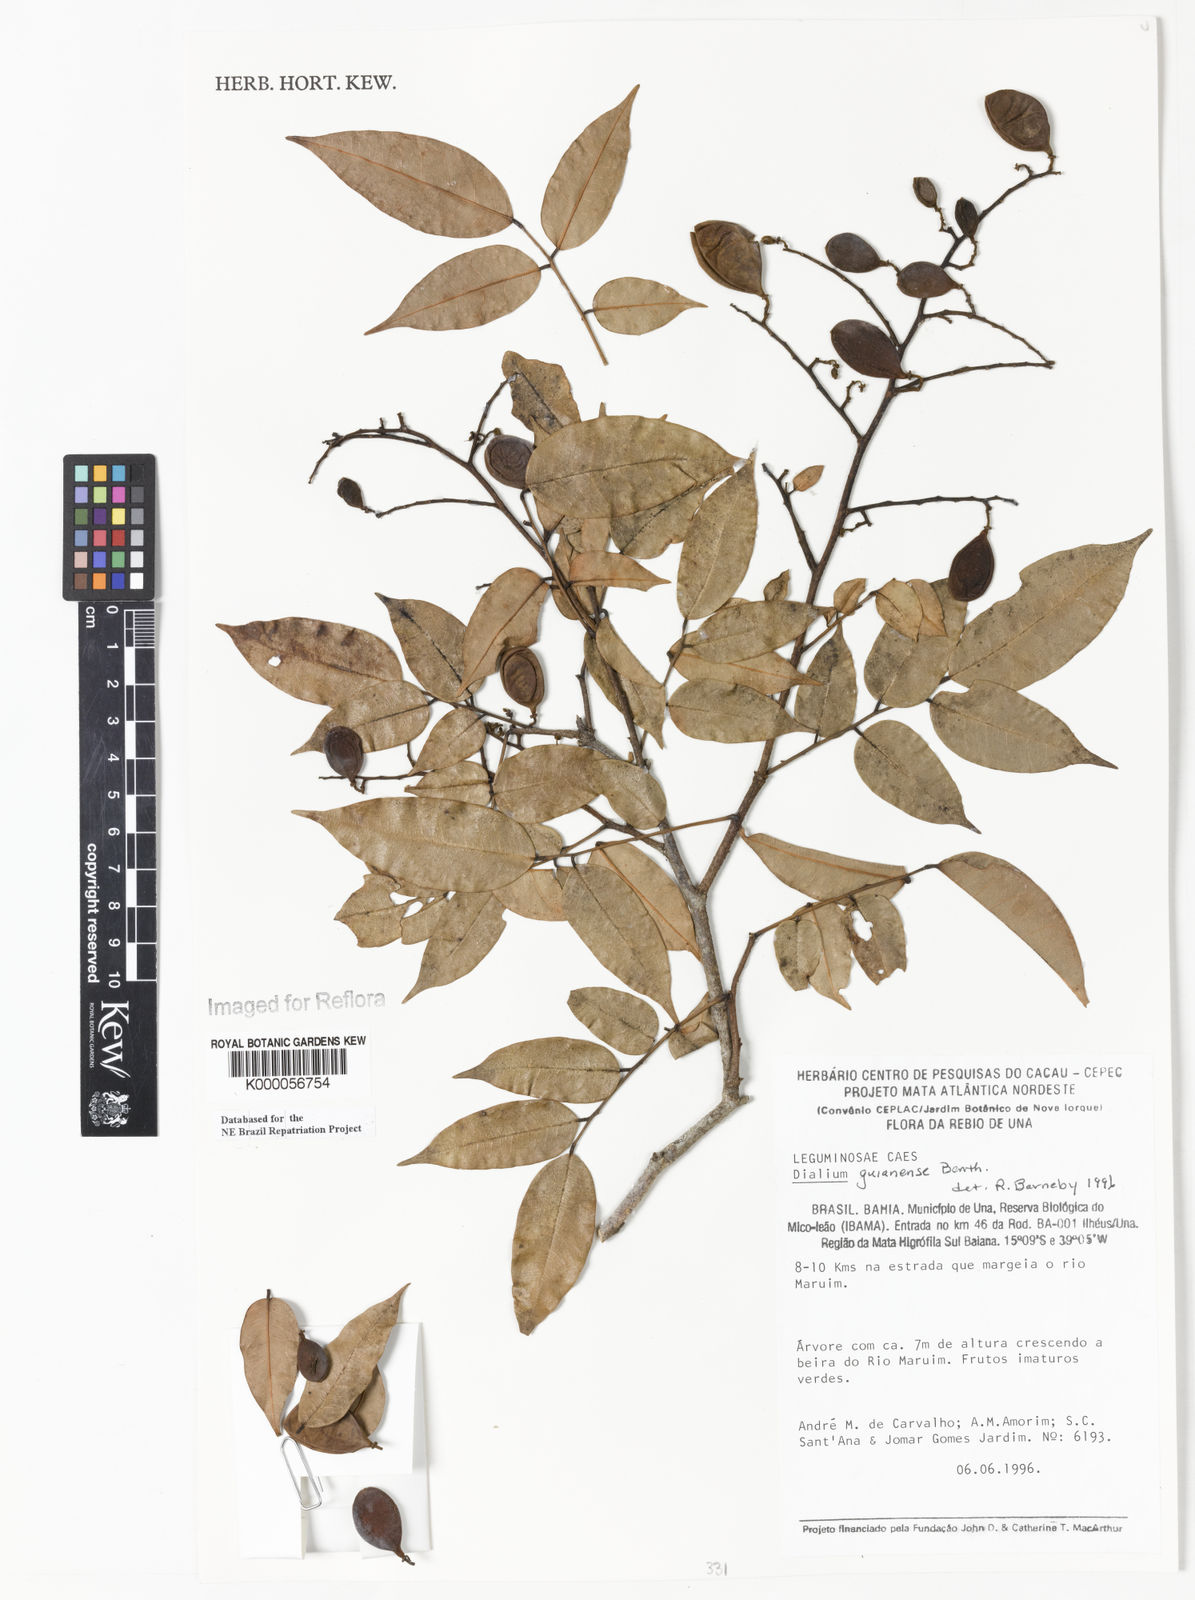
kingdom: Plantae
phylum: Tracheophyta
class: Magnoliopsida
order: Fabales
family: Fabaceae
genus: Dialium
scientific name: Dialium guianense
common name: Ironwood
